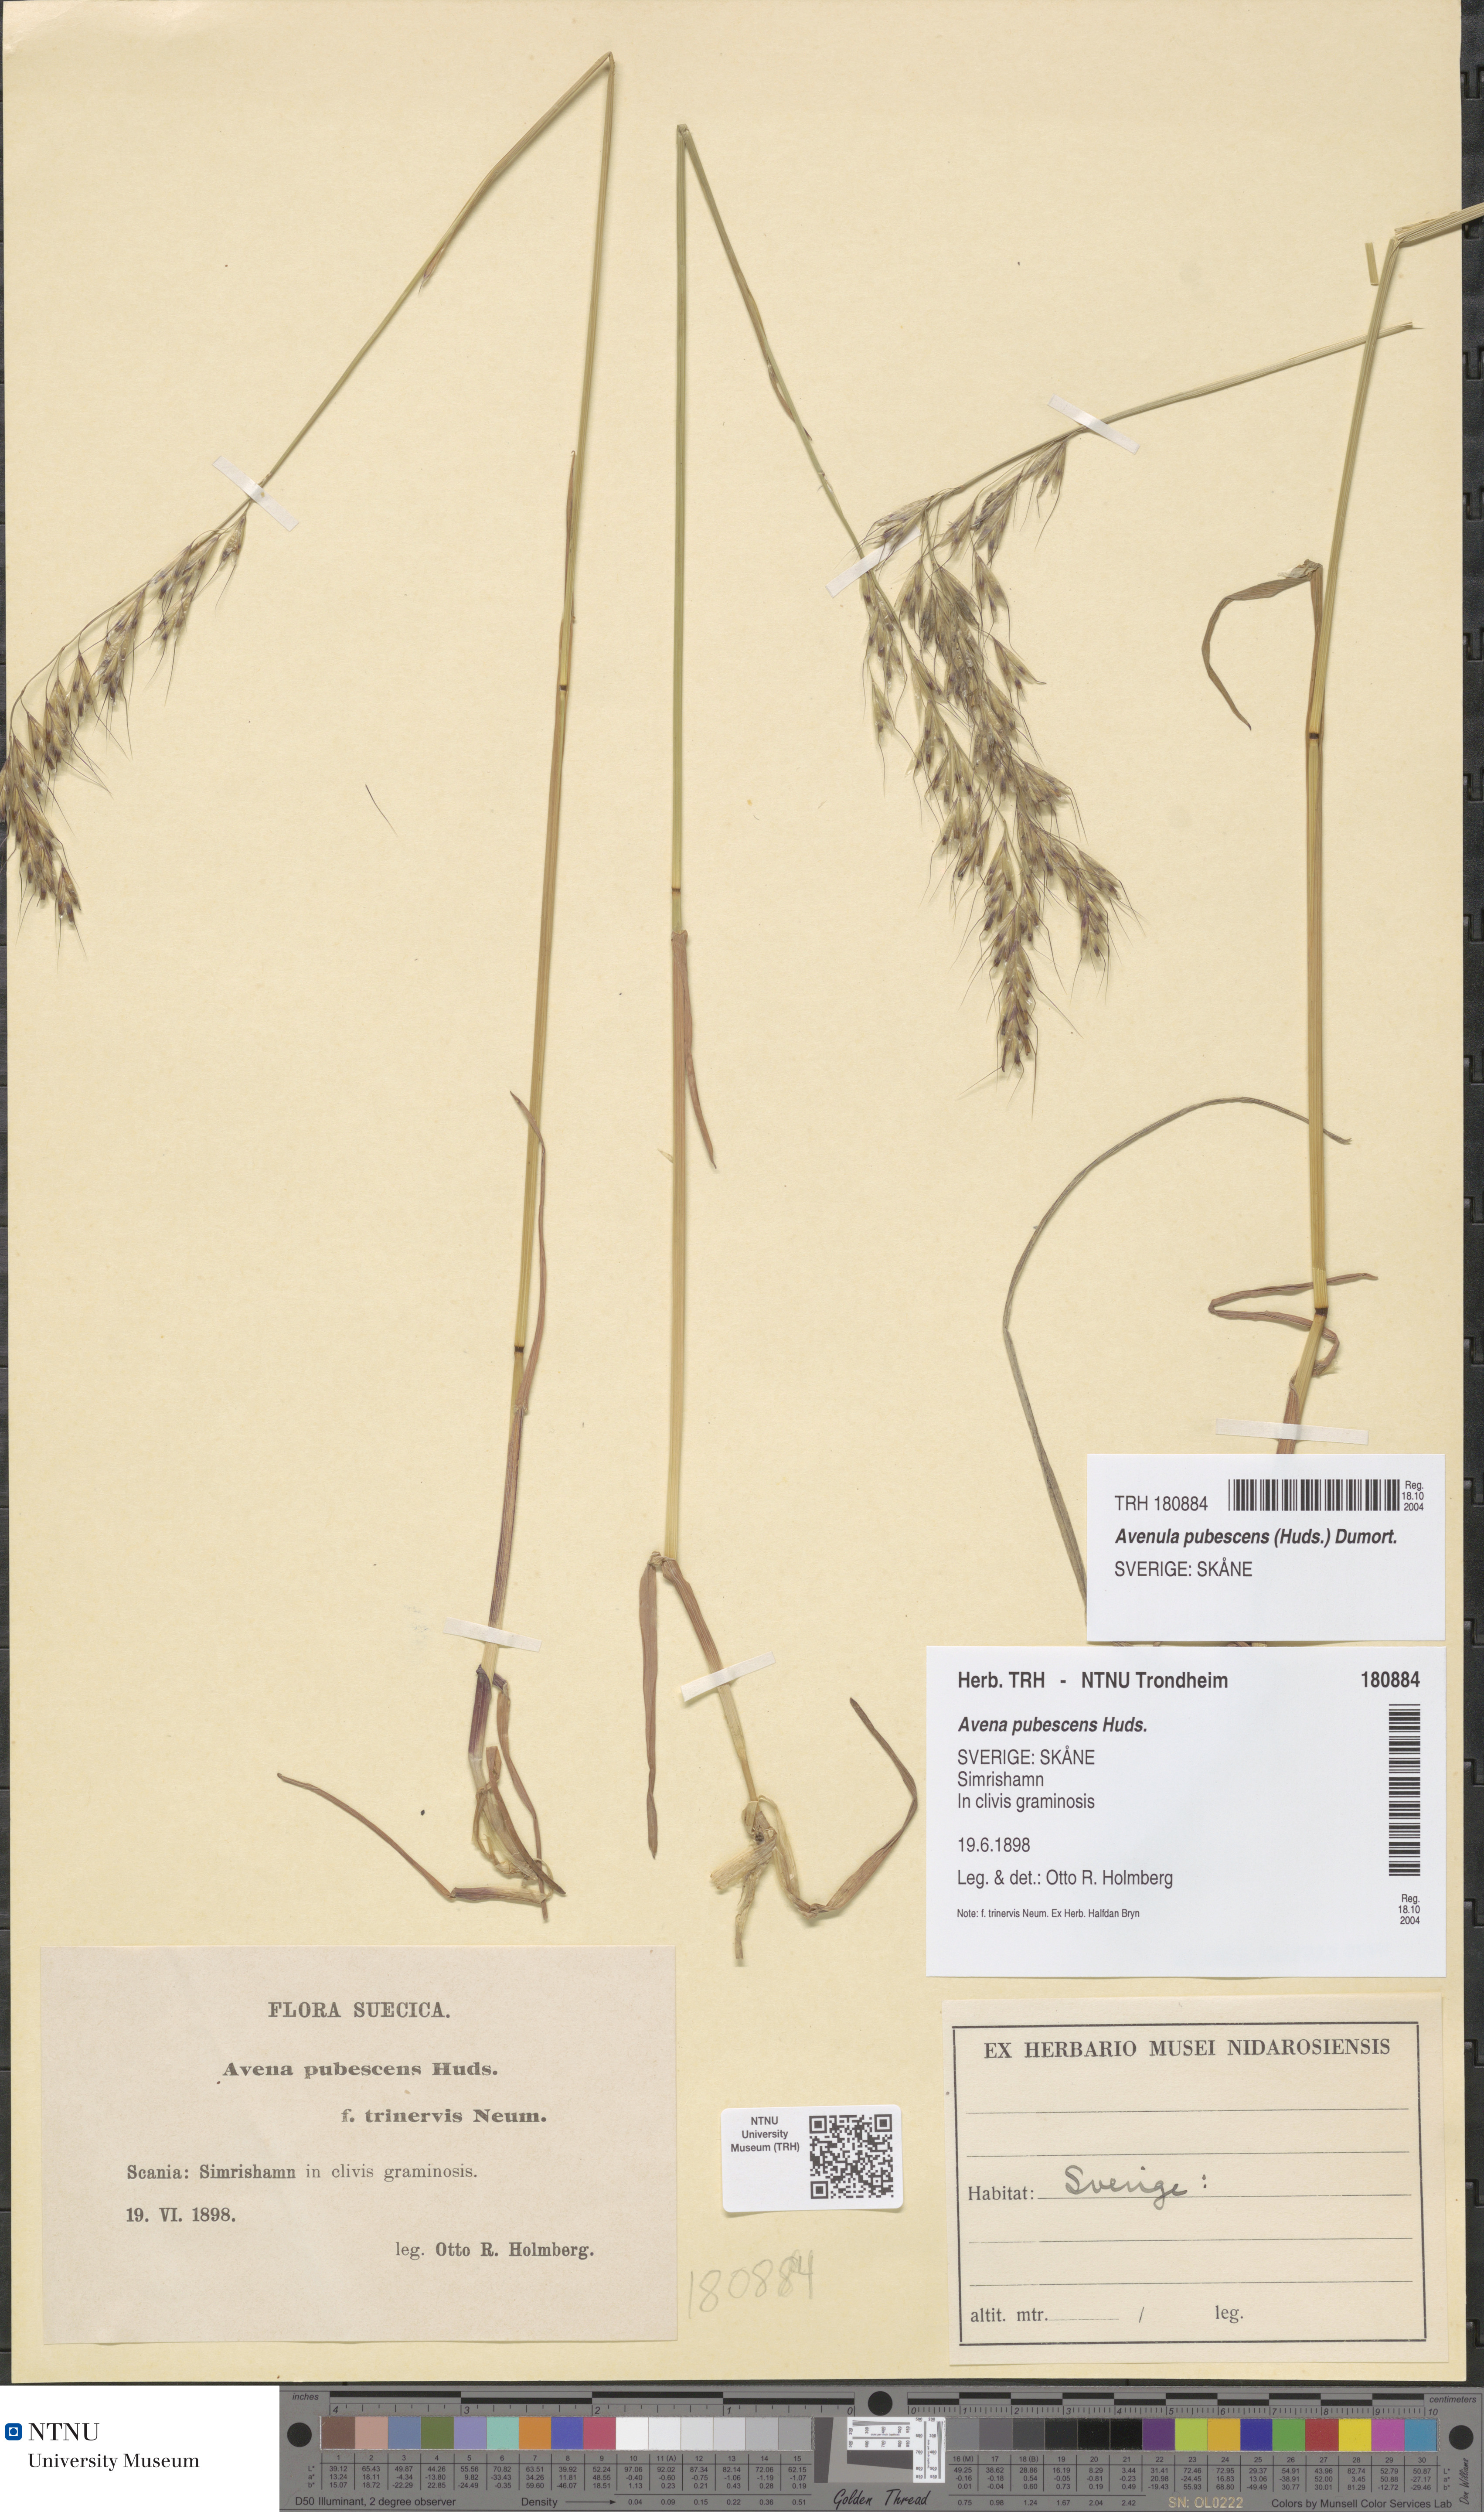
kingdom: Plantae
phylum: Tracheophyta
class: Liliopsida
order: Poales
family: Poaceae
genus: Avenula
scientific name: Avenula pubescens
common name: Downy alpine oatgrass
